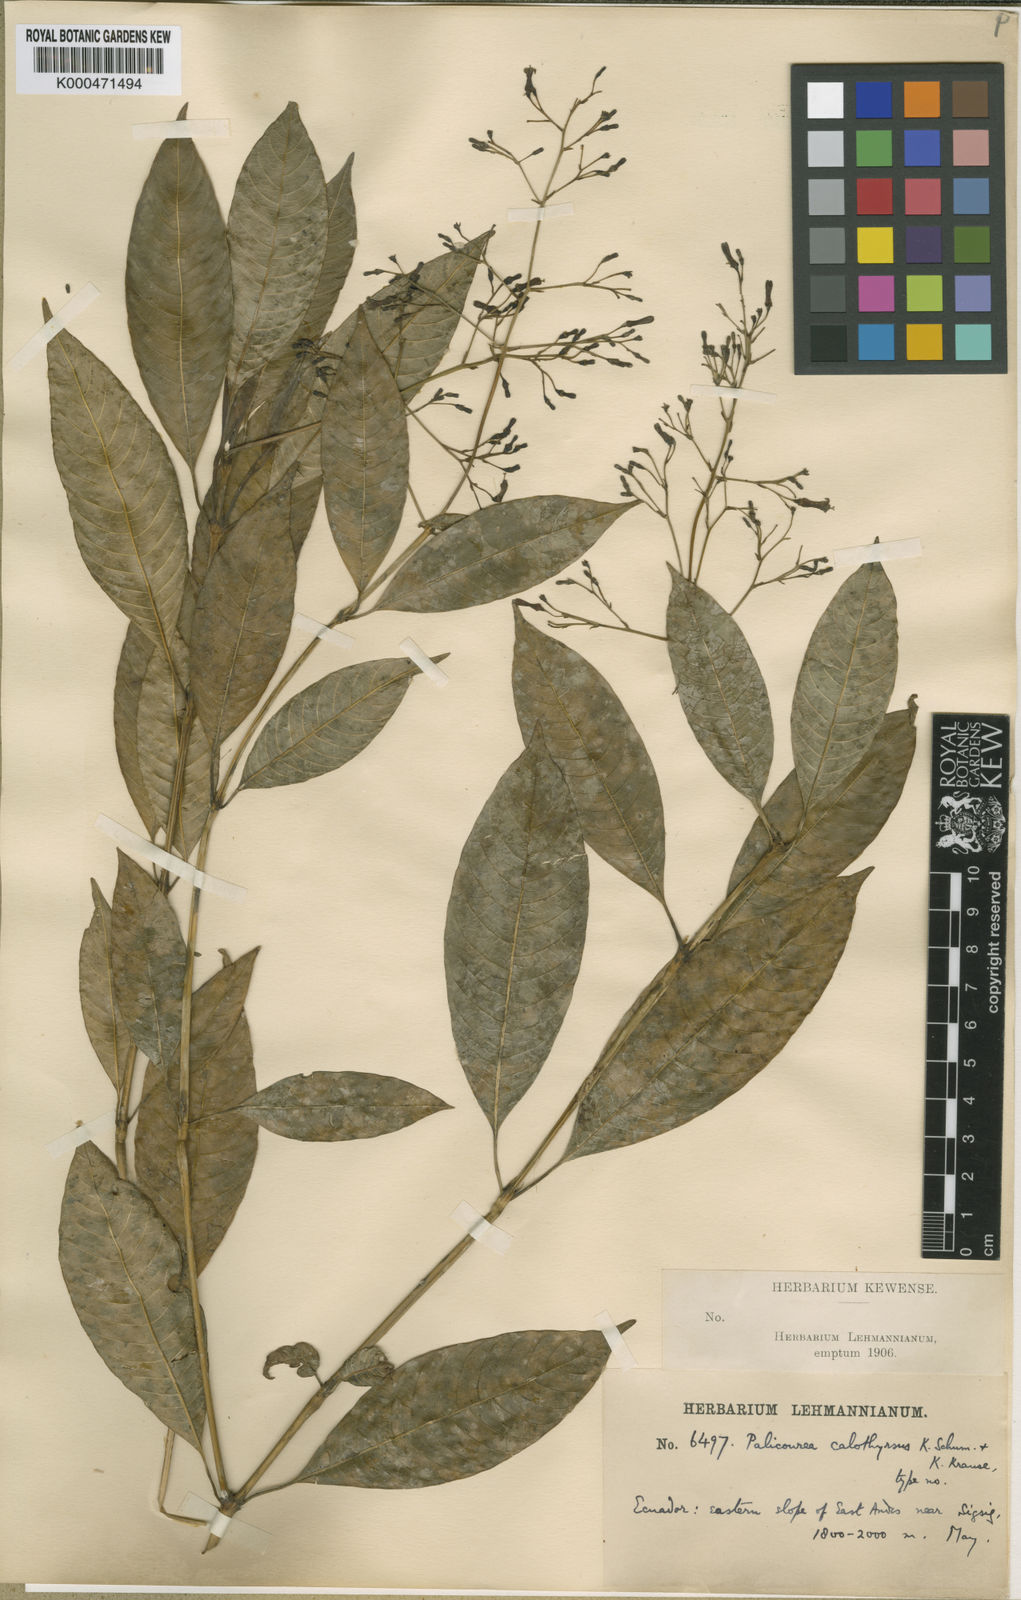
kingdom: Plantae
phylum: Tracheophyta
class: Magnoliopsida
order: Gentianales
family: Rubiaceae
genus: Palicourea
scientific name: Palicourea calothyrsus
